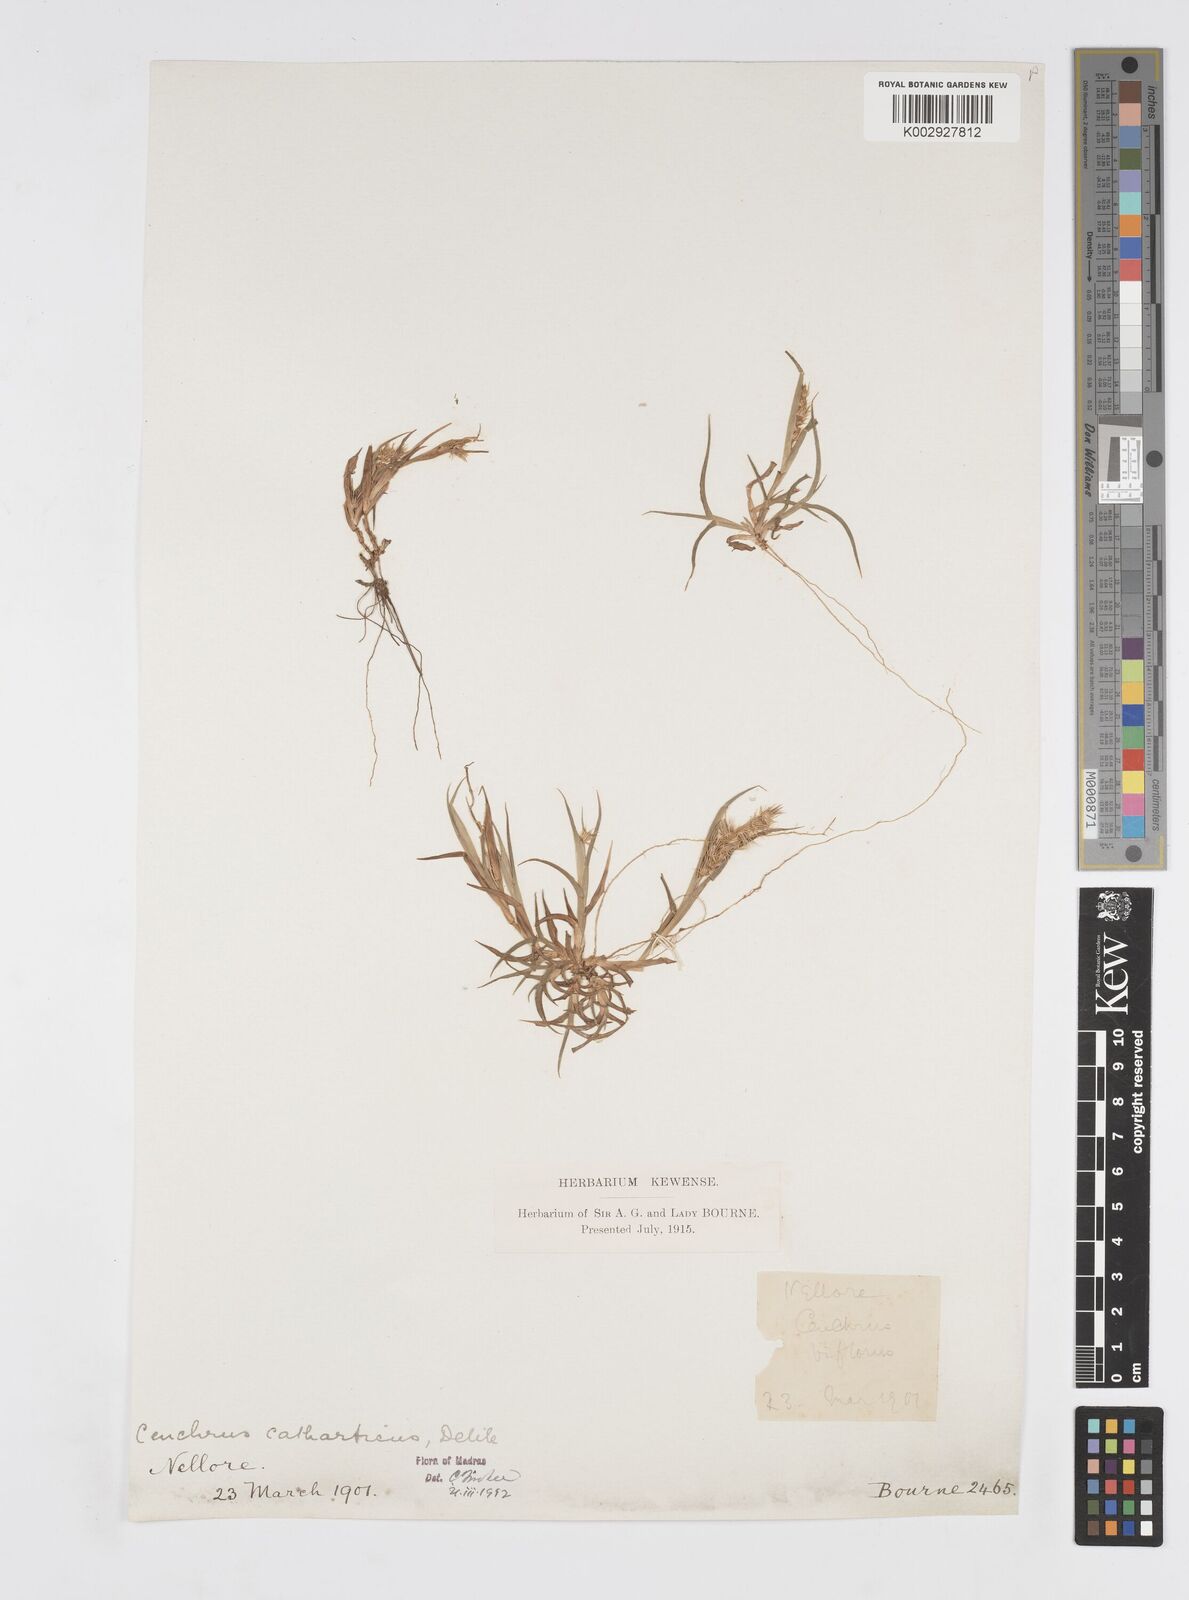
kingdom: Plantae
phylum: Tracheophyta
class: Liliopsida
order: Poales
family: Poaceae
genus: Cenchrus
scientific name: Cenchrus biflorus
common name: Indian sandbur
